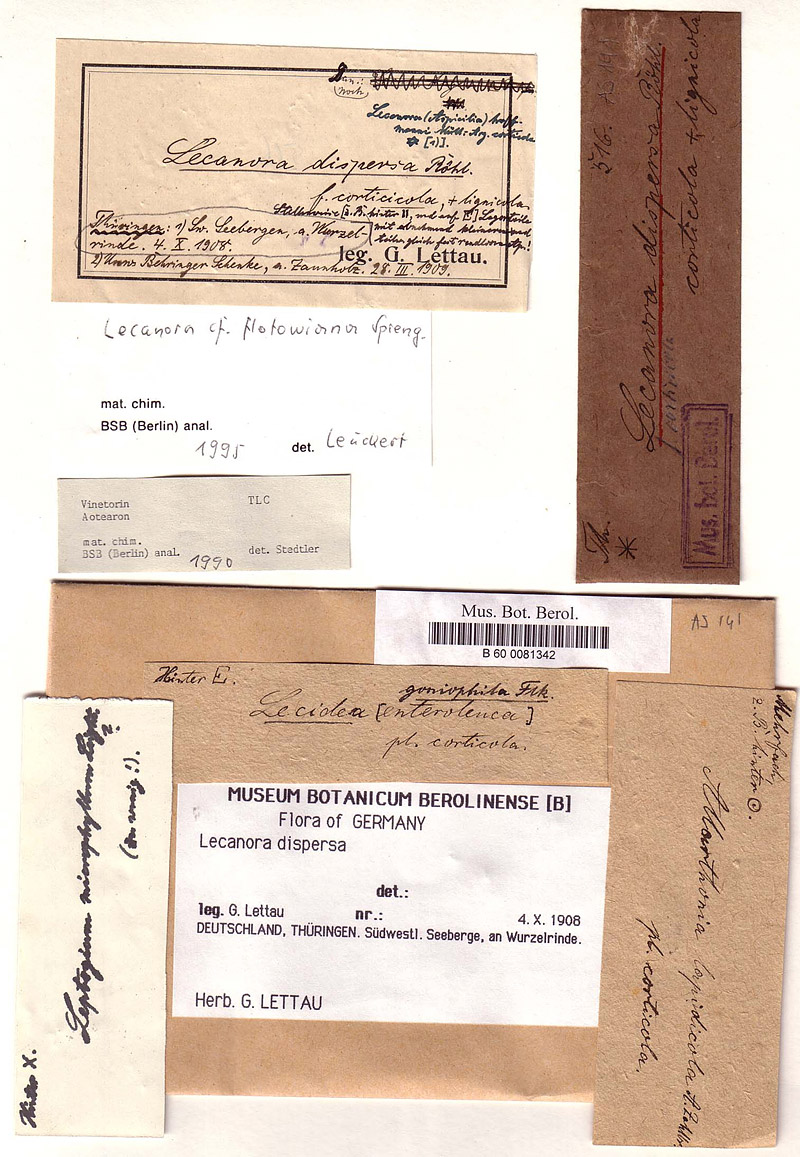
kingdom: Fungi
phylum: Ascomycota
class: Lecanoromycetes
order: Pertusariales
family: Megasporaceae
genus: Circinaria
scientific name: Circinaria contorta
